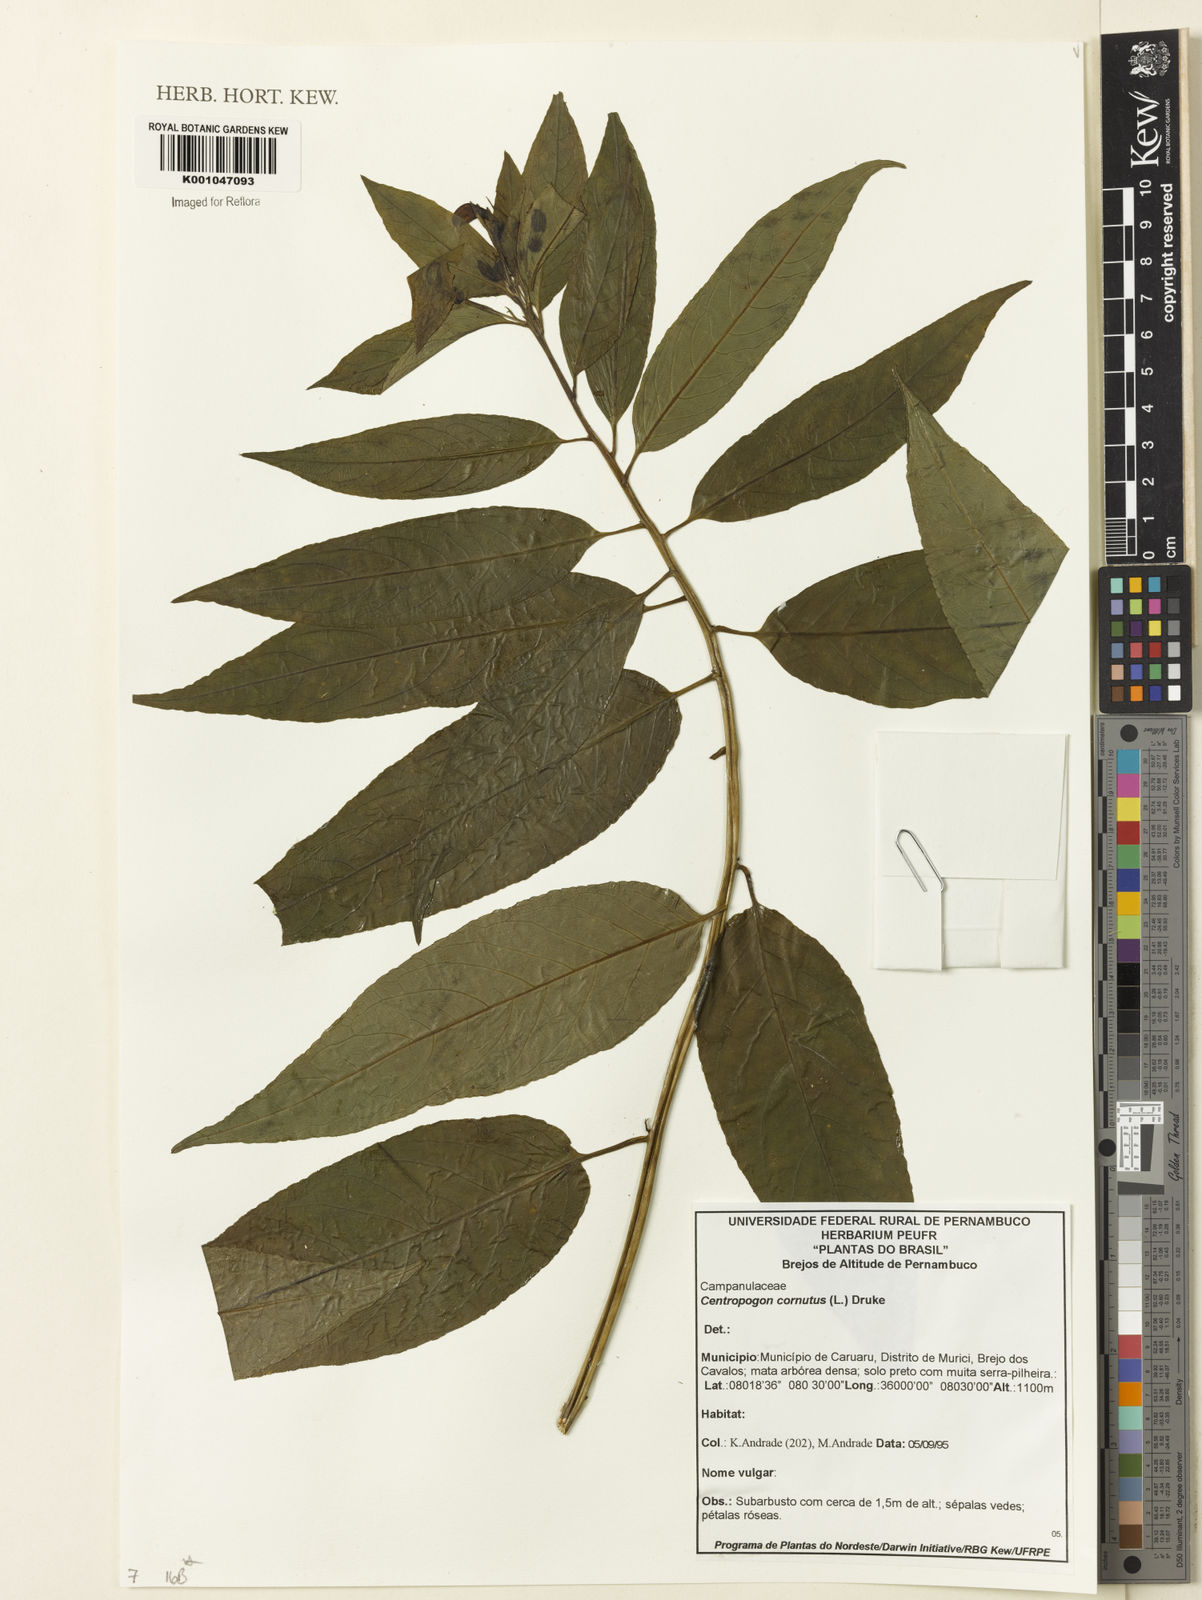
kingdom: Plantae
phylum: Tracheophyta
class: Magnoliopsida
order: Asterales
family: Campanulaceae
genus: Centropogon
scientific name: Centropogon cornutus
